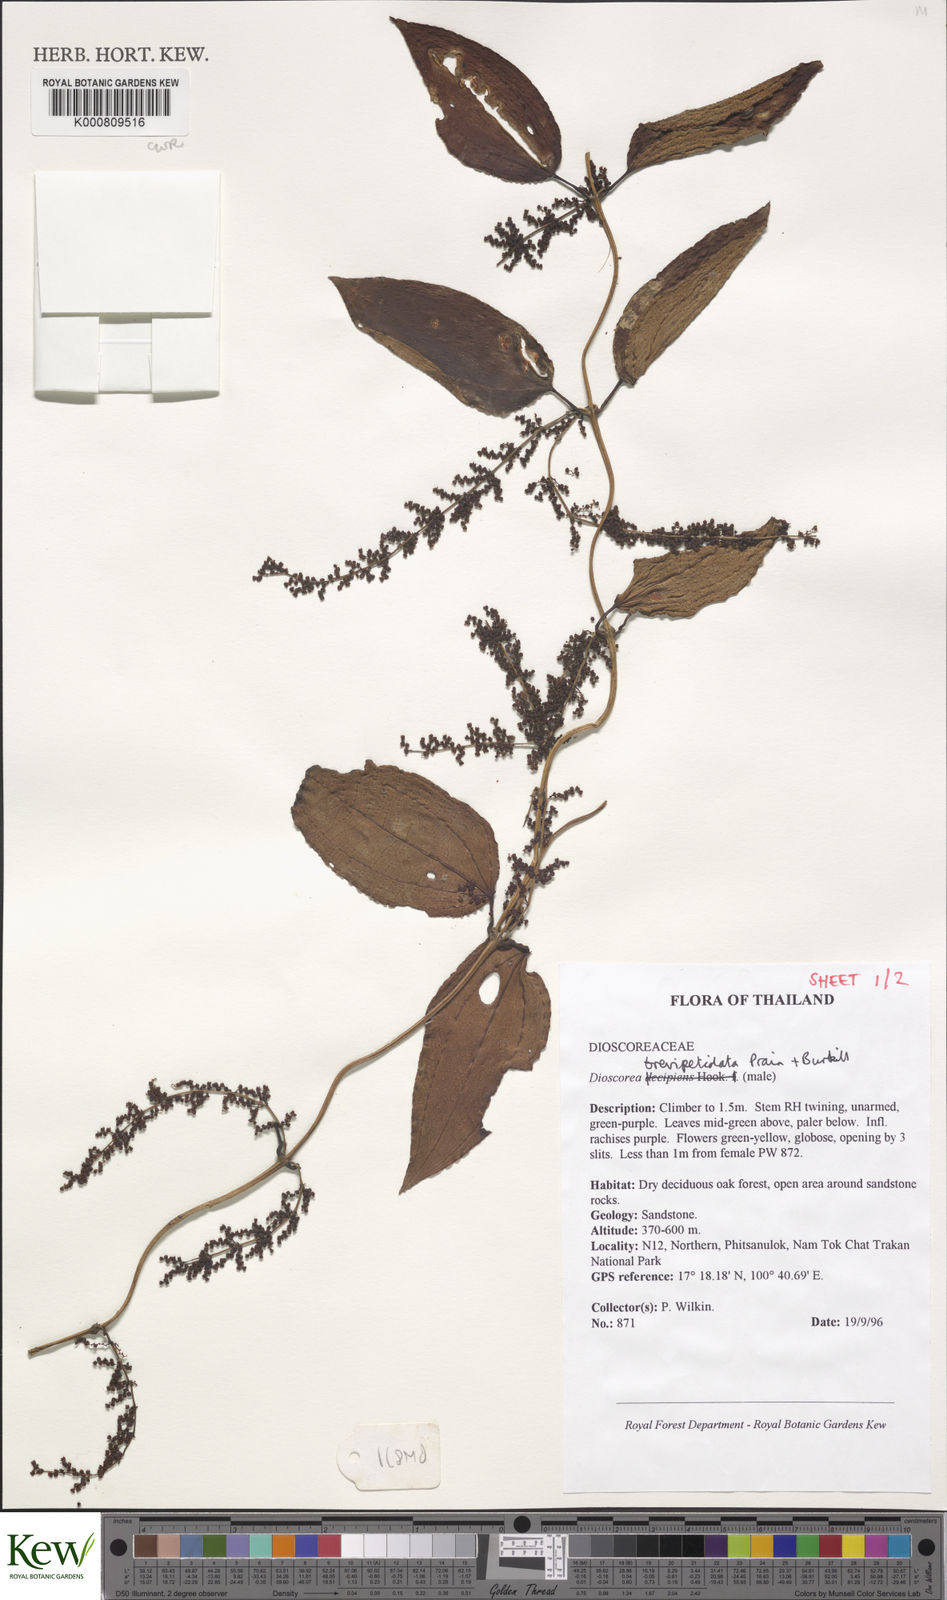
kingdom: Plantae
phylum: Tracheophyta
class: Liliopsida
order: Dioscoreales
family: Dioscoreaceae
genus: Dioscorea
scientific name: Dioscorea brevipetiolata
